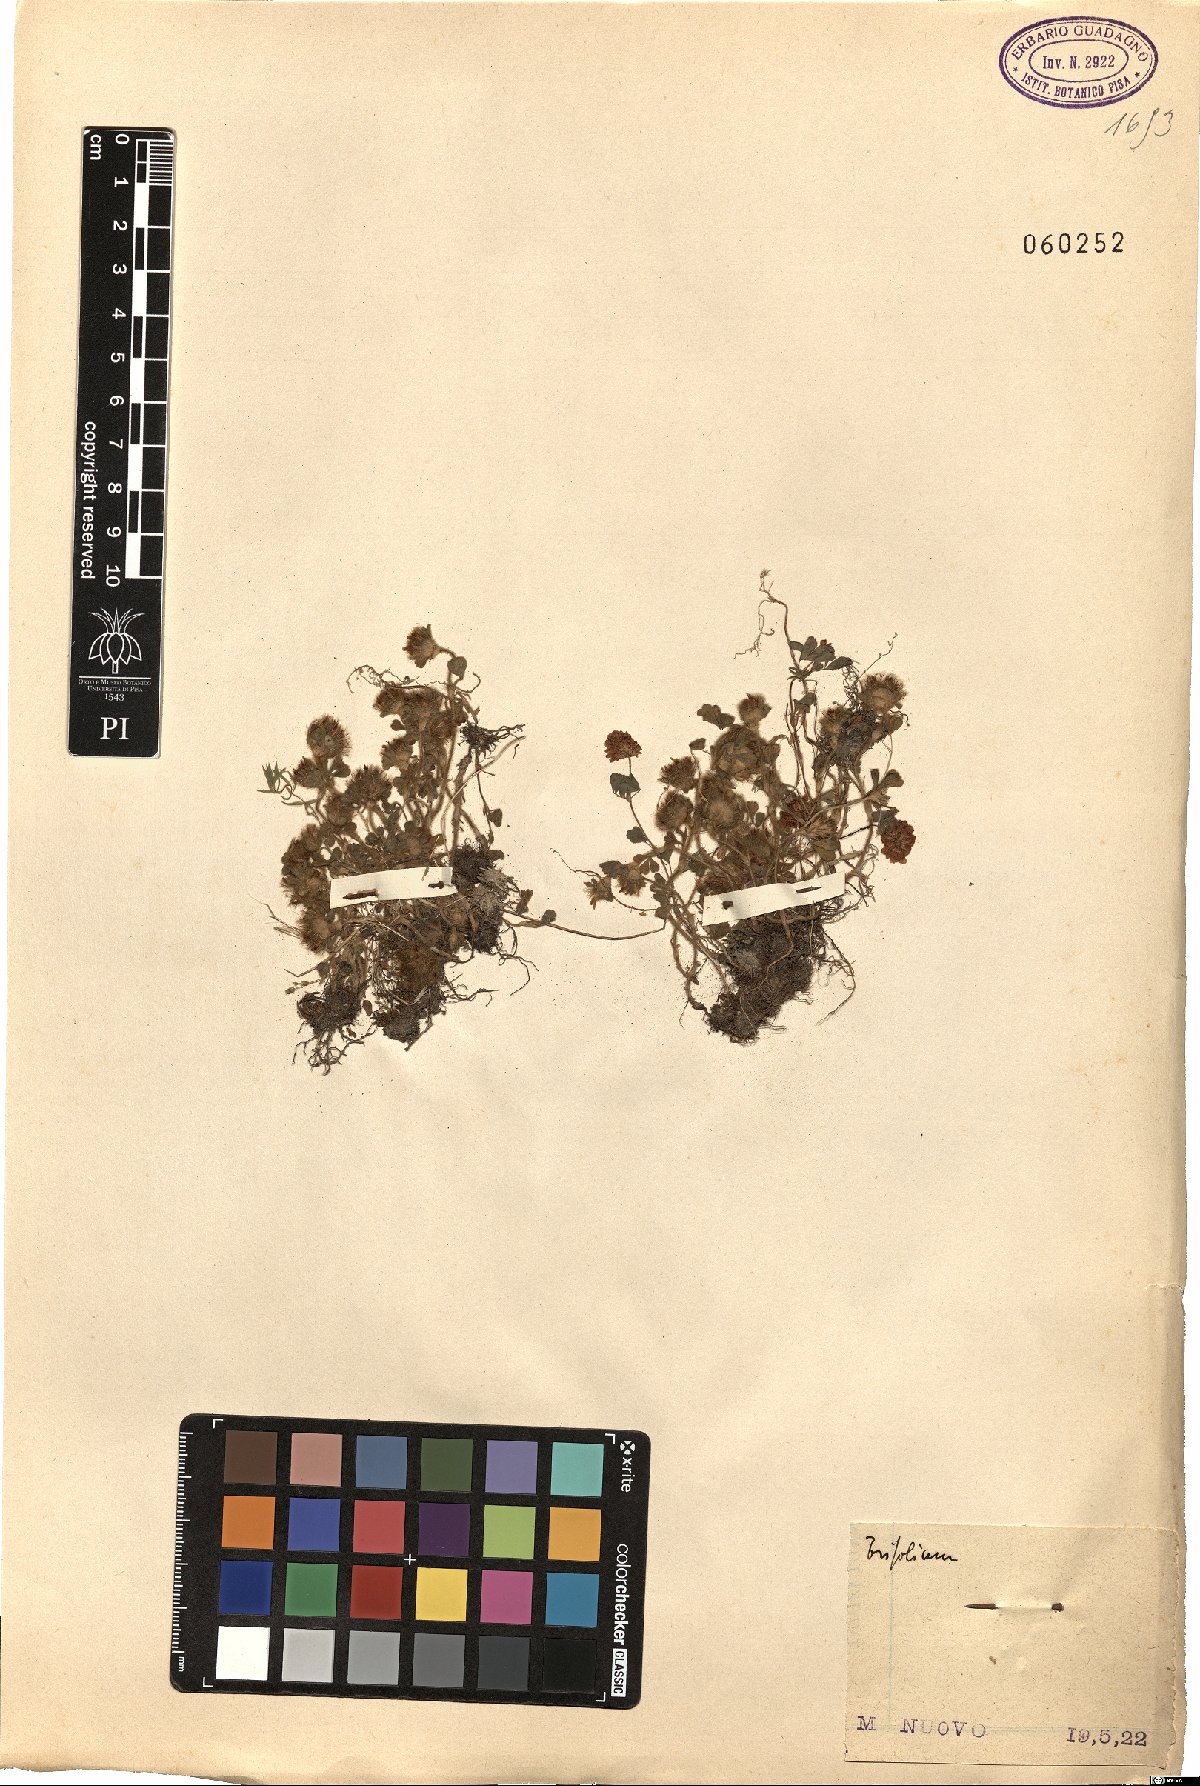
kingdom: Plantae
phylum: Tracheophyta
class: Magnoliopsida
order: Fabales
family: Fabaceae
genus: Trifolium
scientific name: Trifolium
